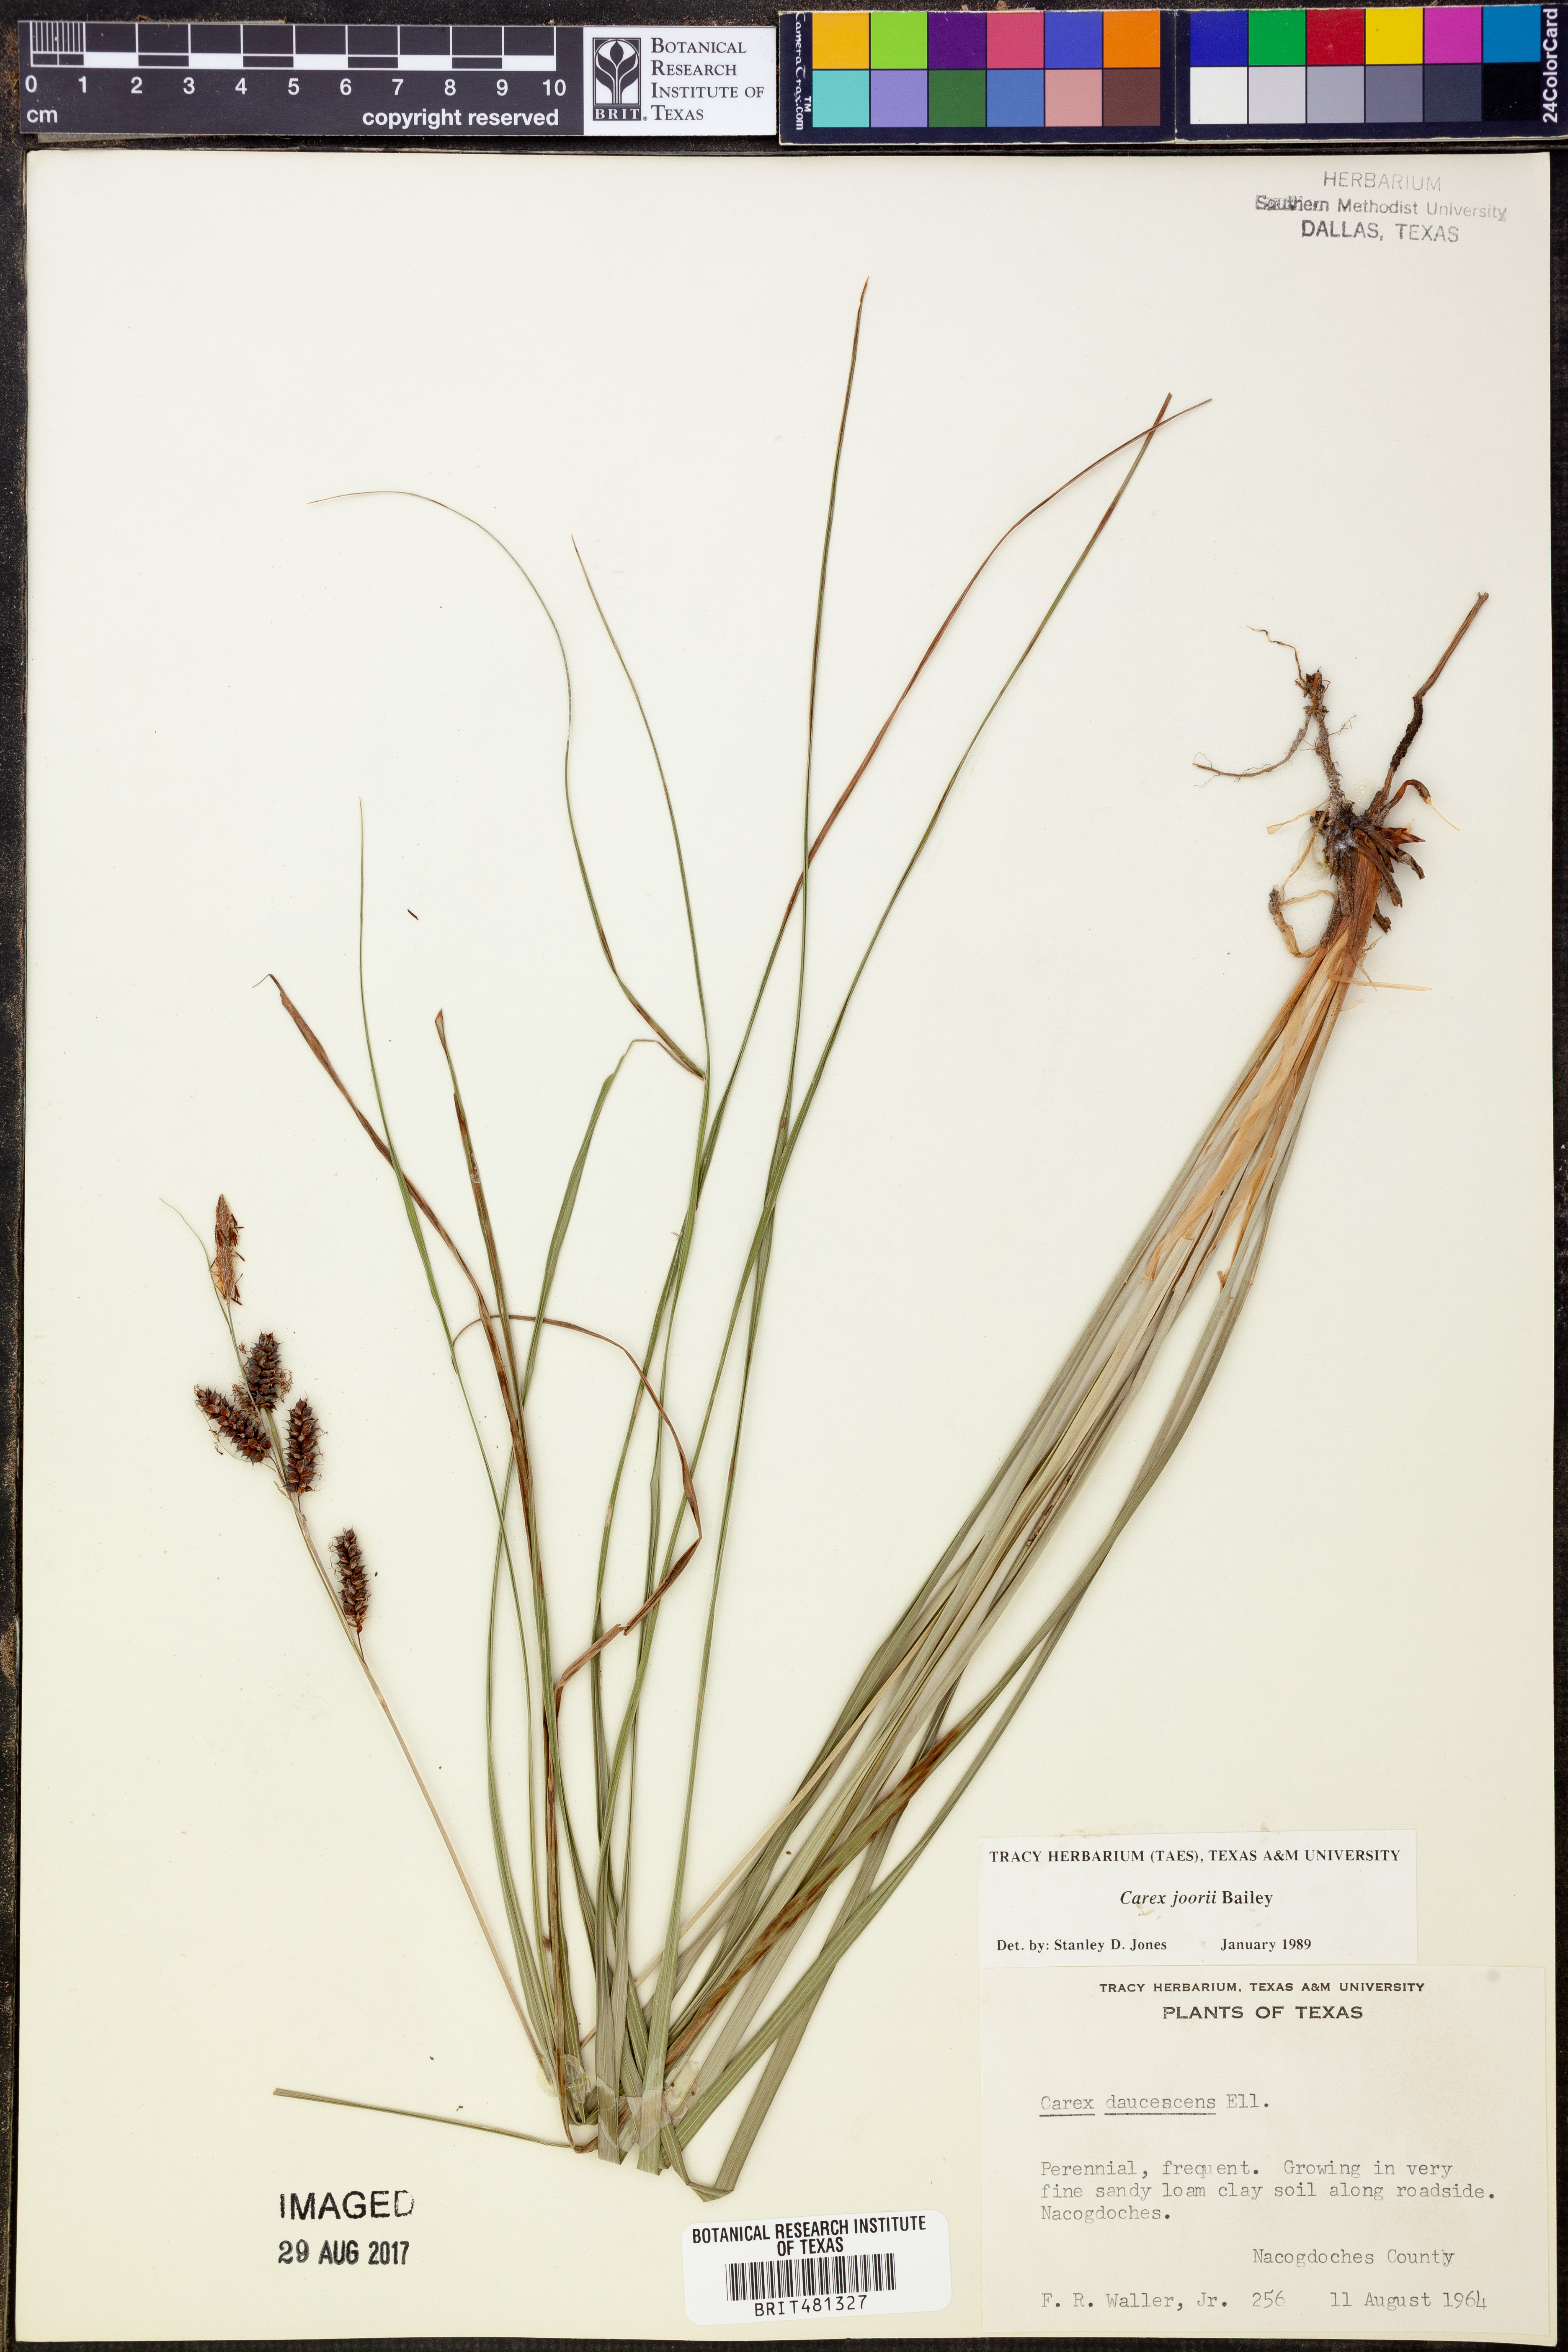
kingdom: Plantae
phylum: Tracheophyta
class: Liliopsida
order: Poales
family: Cyperaceae
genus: Carex
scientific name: Carex joorii
